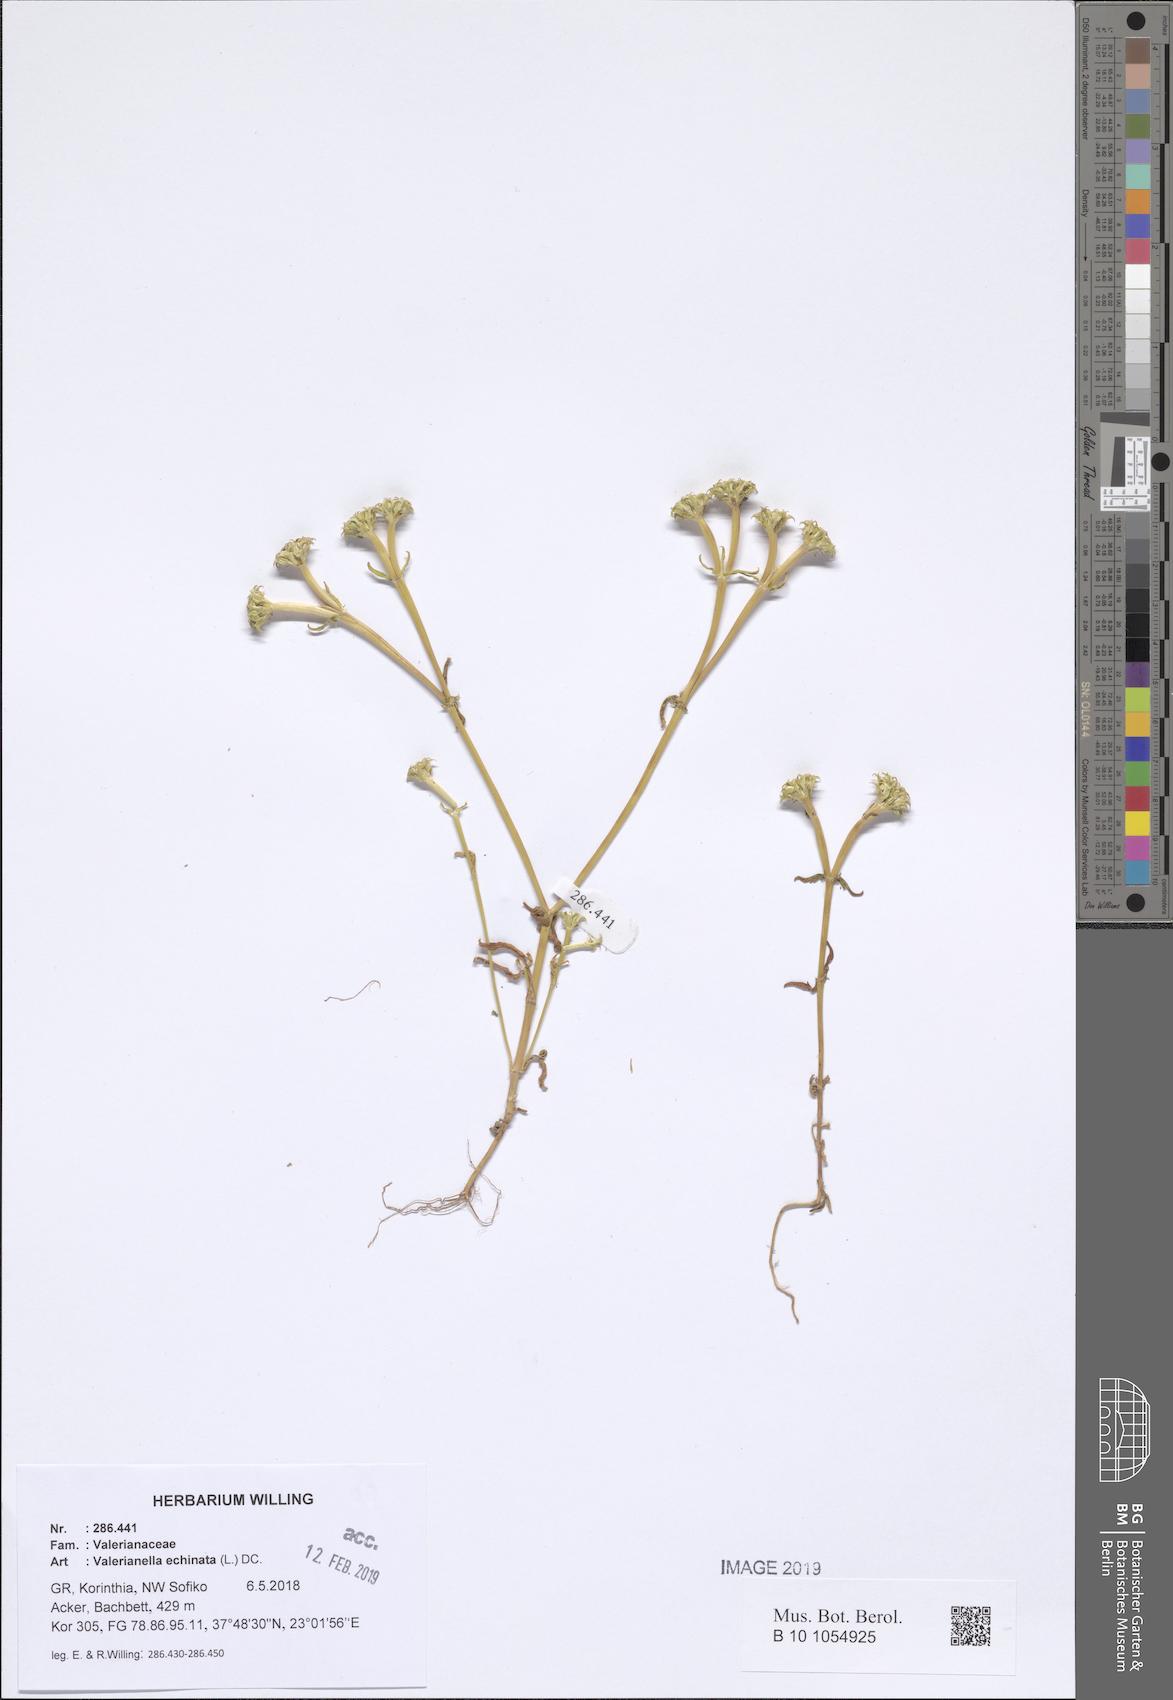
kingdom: Plantae
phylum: Tracheophyta
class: Magnoliopsida
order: Dipsacales
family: Caprifoliaceae
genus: Valerianella
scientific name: Valerianella echinata
